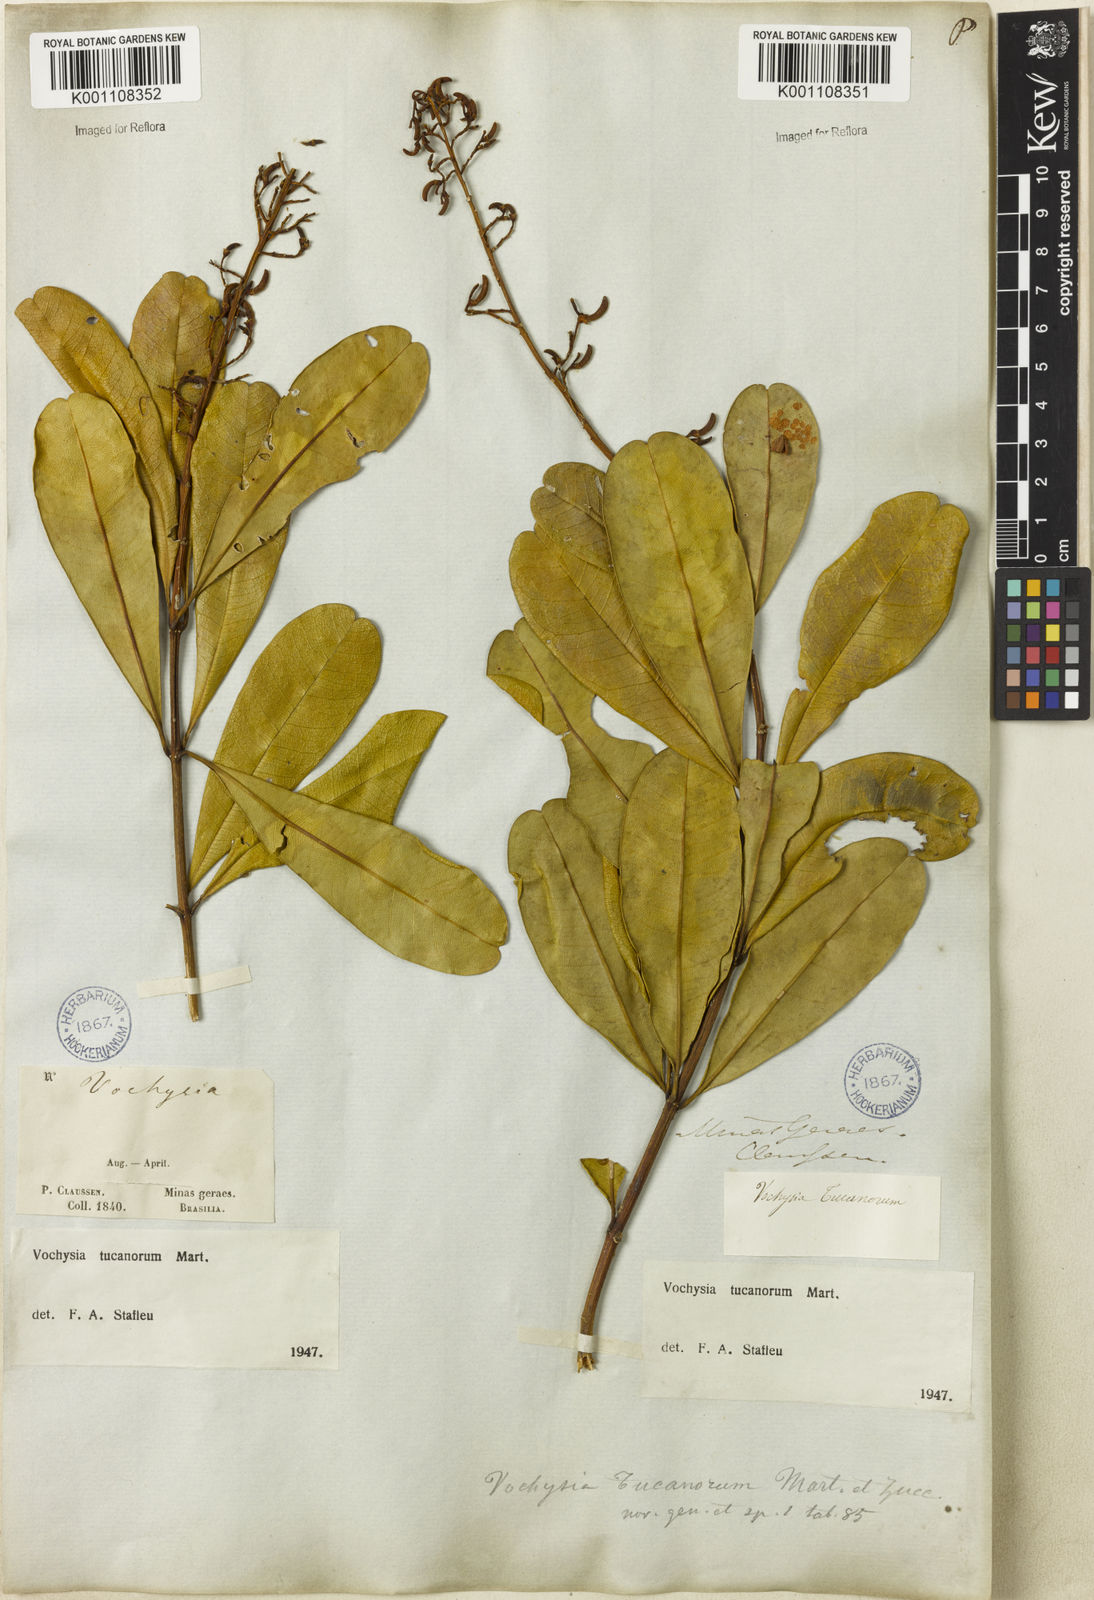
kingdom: Plantae
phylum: Tracheophyta
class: Magnoliopsida
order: Myrtales
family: Vochysiaceae
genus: Vochysia
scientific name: Vochysia tucanorum
